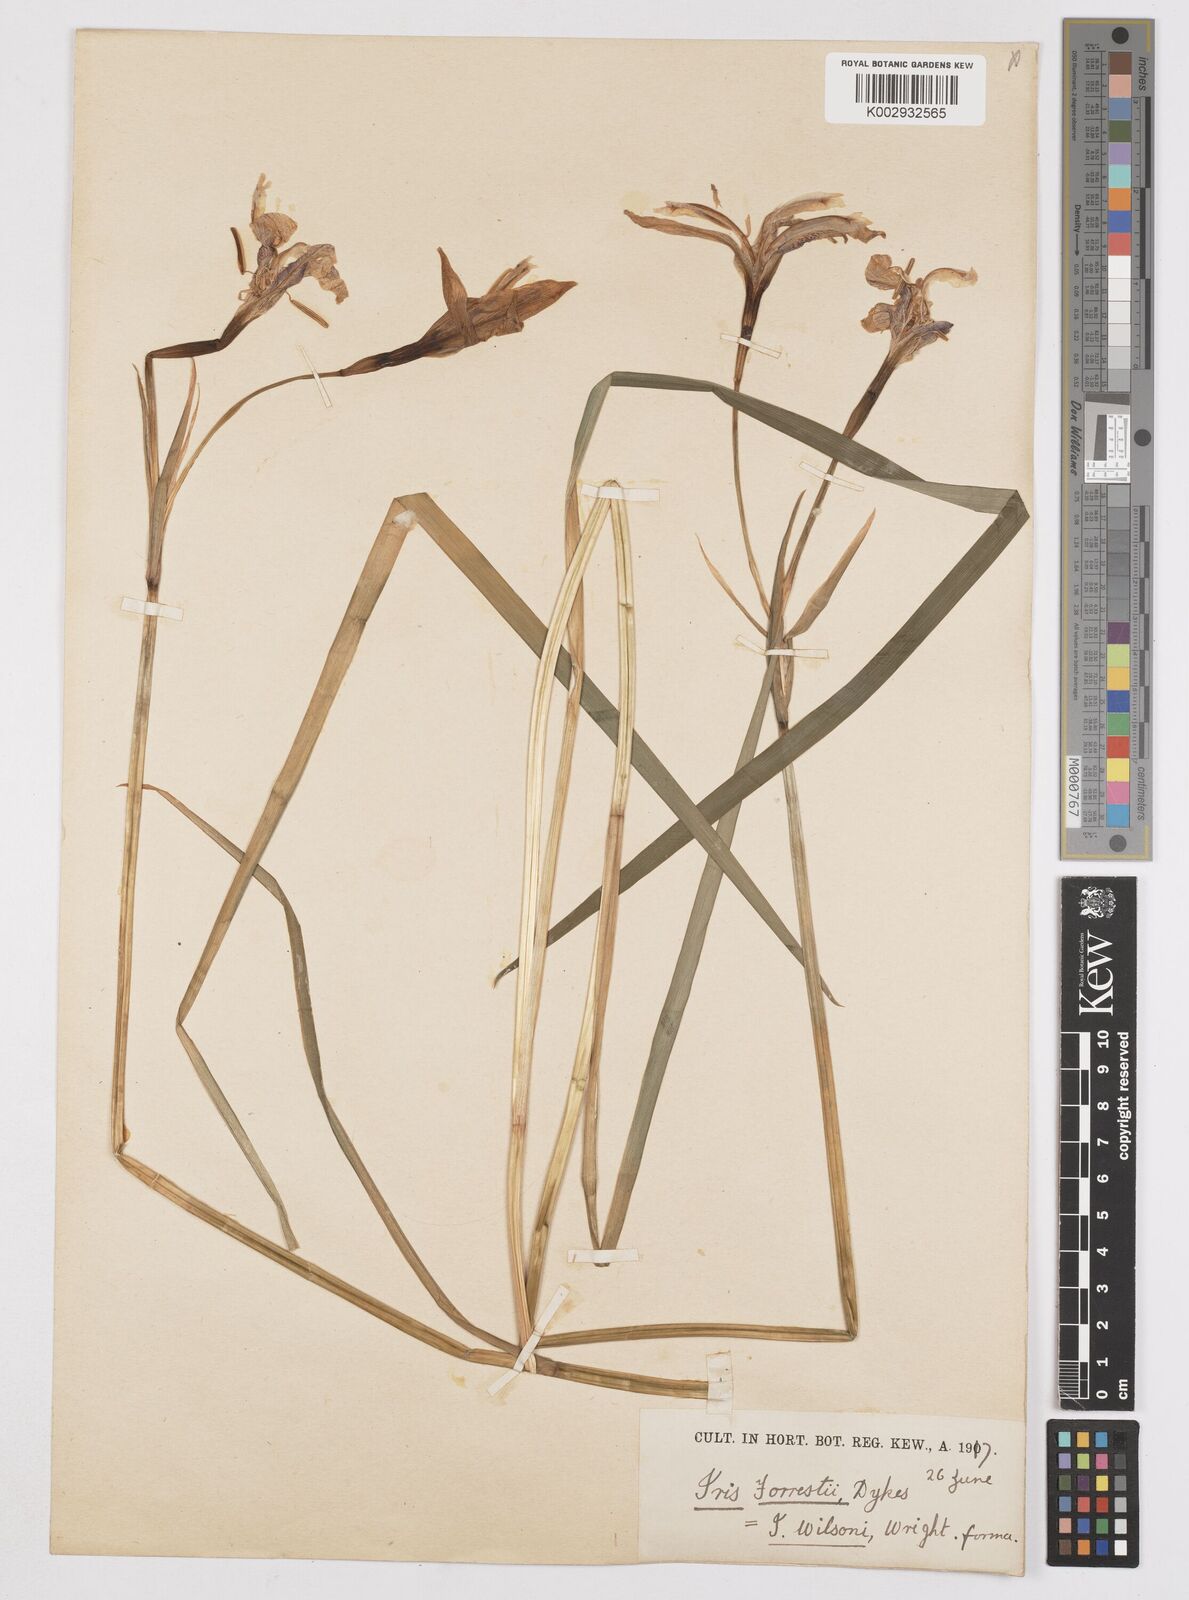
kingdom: Plantae
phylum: Tracheophyta
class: Liliopsida
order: Asparagales
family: Iridaceae
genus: Iris
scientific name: Iris wilsonii
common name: Yellow-flower iris
